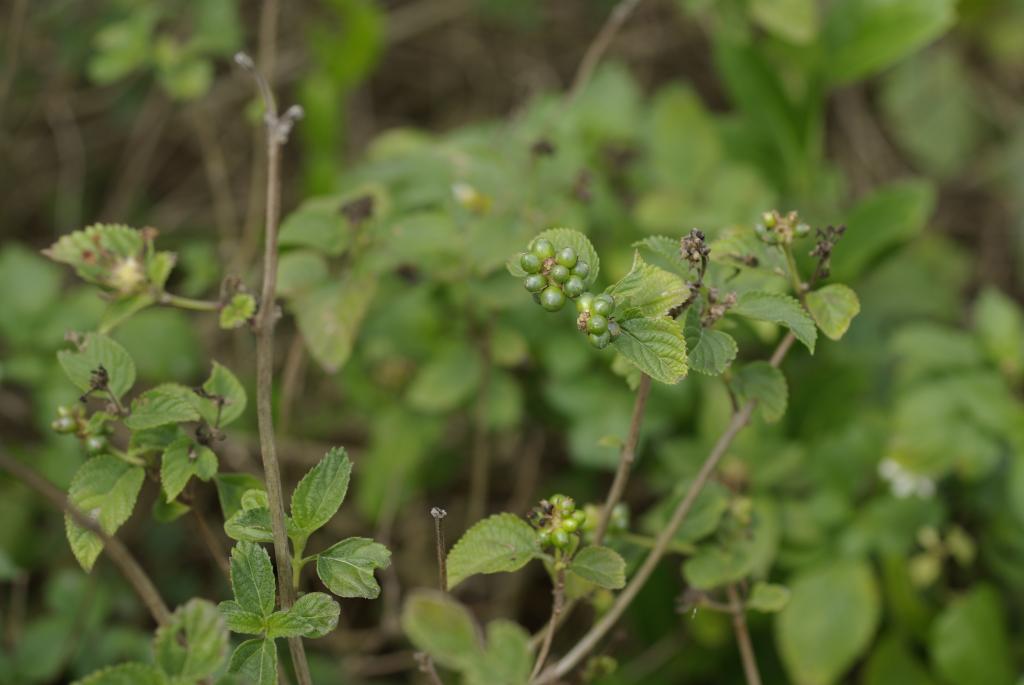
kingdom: Plantae
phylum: Tracheophyta
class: Magnoliopsida
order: Lamiales
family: Verbenaceae
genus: Lantana
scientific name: Lantana camara
